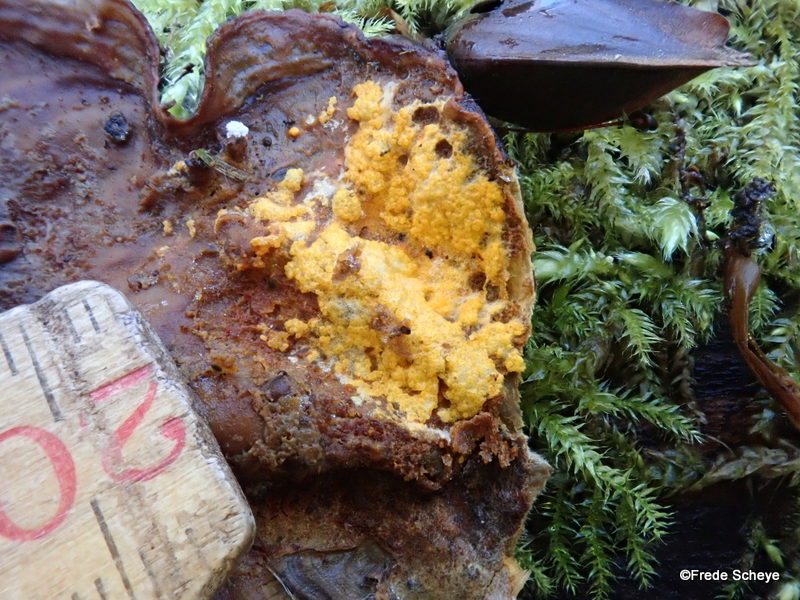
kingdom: Fungi
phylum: Ascomycota
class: Sordariomycetes
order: Hypocreales
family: Hypocreaceae
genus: Hypomyces
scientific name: Hypomyces aurantius
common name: almindelig snylteskorpe
